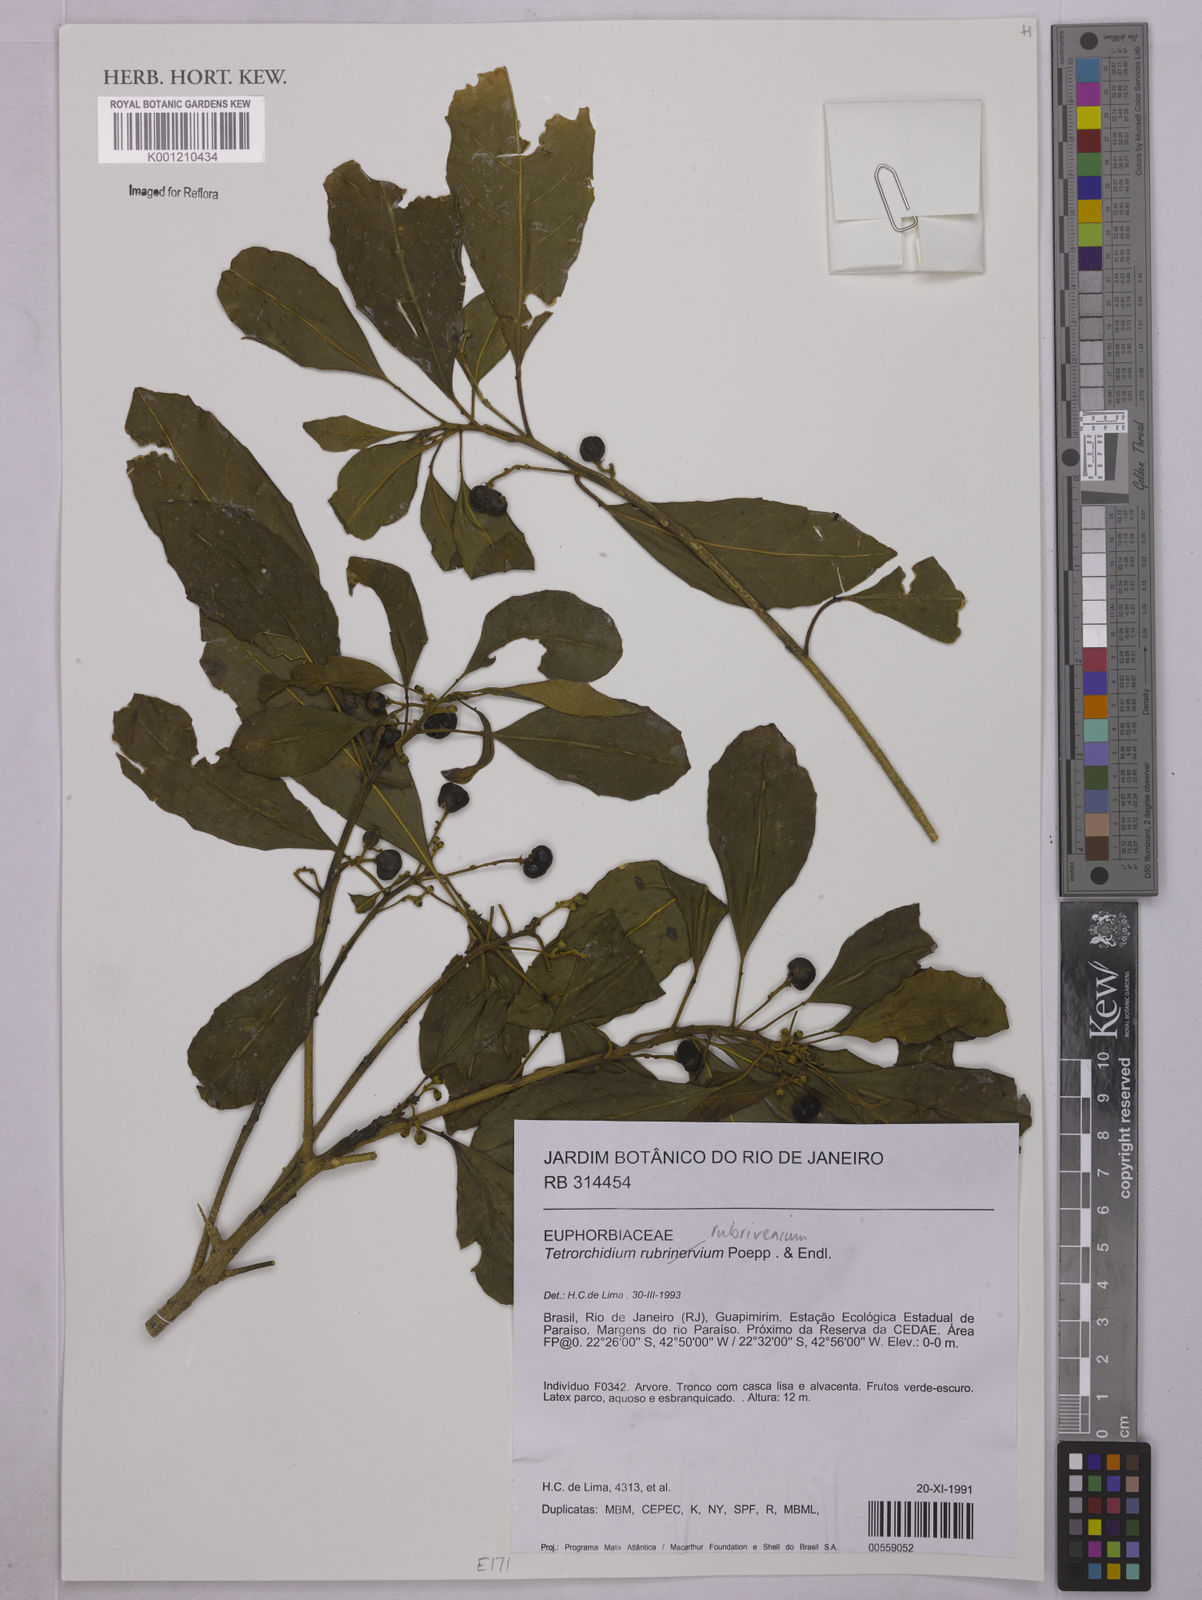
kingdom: Plantae
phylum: Tracheophyta
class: Magnoliopsida
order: Malpighiales
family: Euphorbiaceae
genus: Tetrorchidium
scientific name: Tetrorchidium rubrivenium
